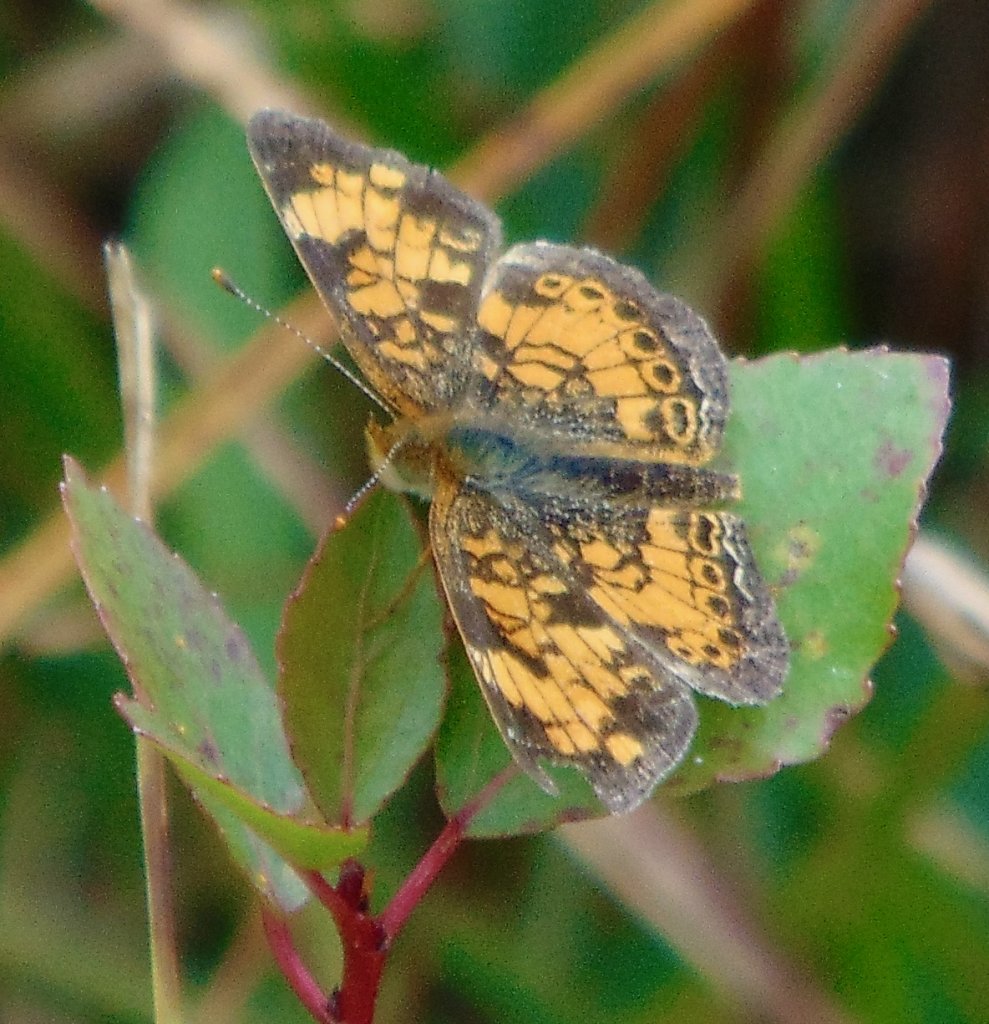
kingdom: Animalia
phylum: Arthropoda
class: Insecta
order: Lepidoptera
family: Nymphalidae
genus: Phyciodes
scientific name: Phyciodes tharos
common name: Pearl Crescent
